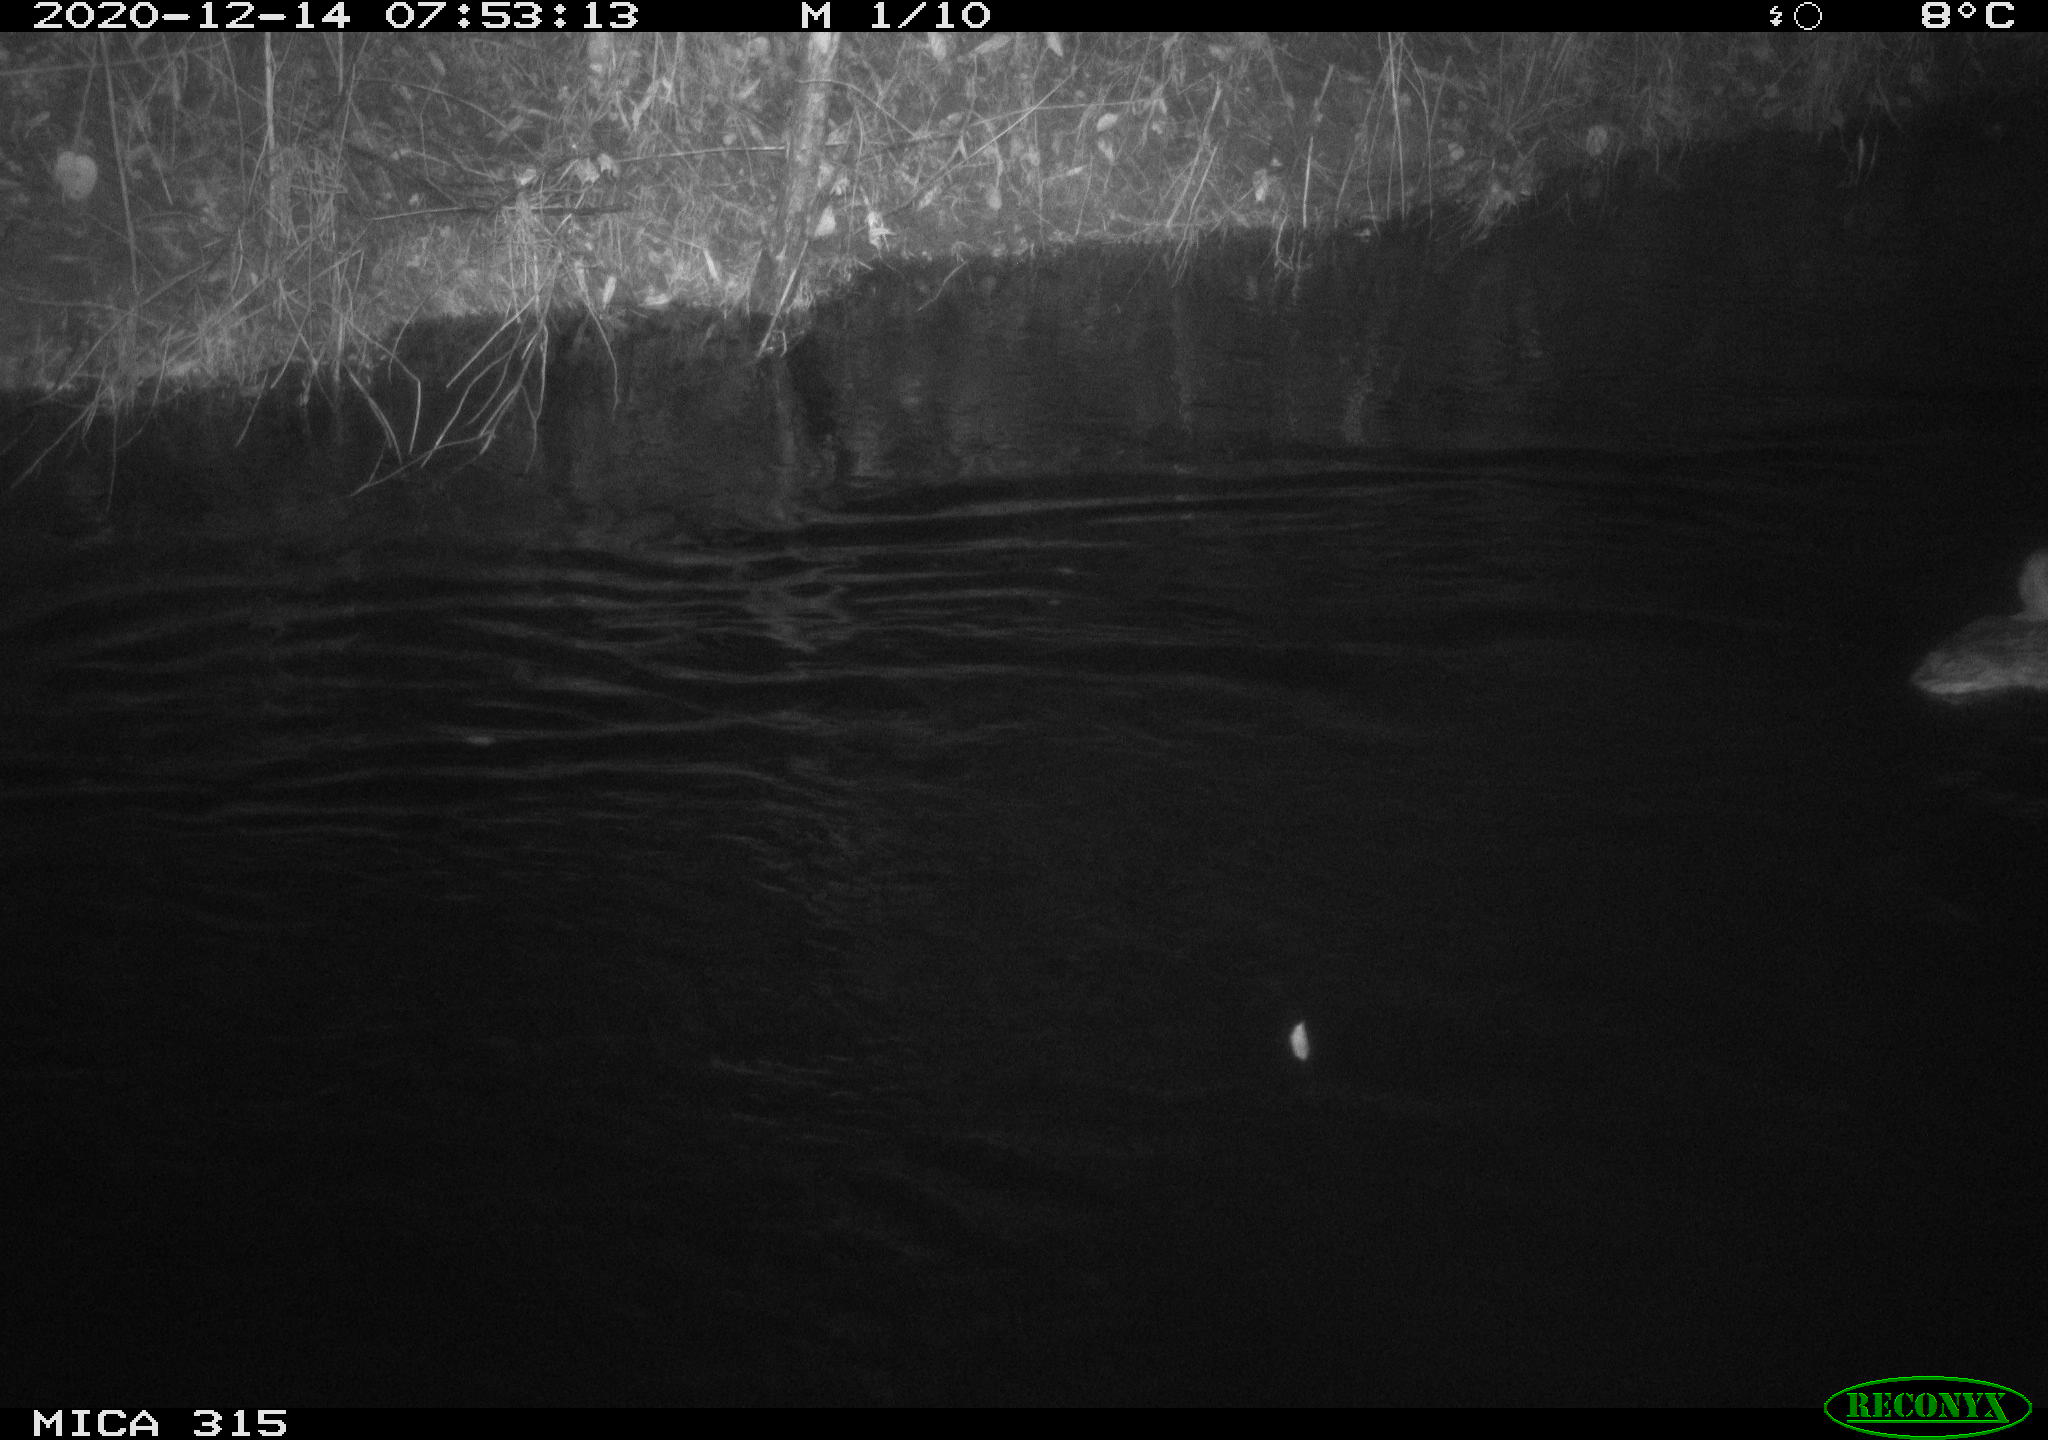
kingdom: Animalia
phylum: Chordata
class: Aves
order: Anseriformes
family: Anatidae
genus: Anas
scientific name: Anas platyrhynchos
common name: Mallard
